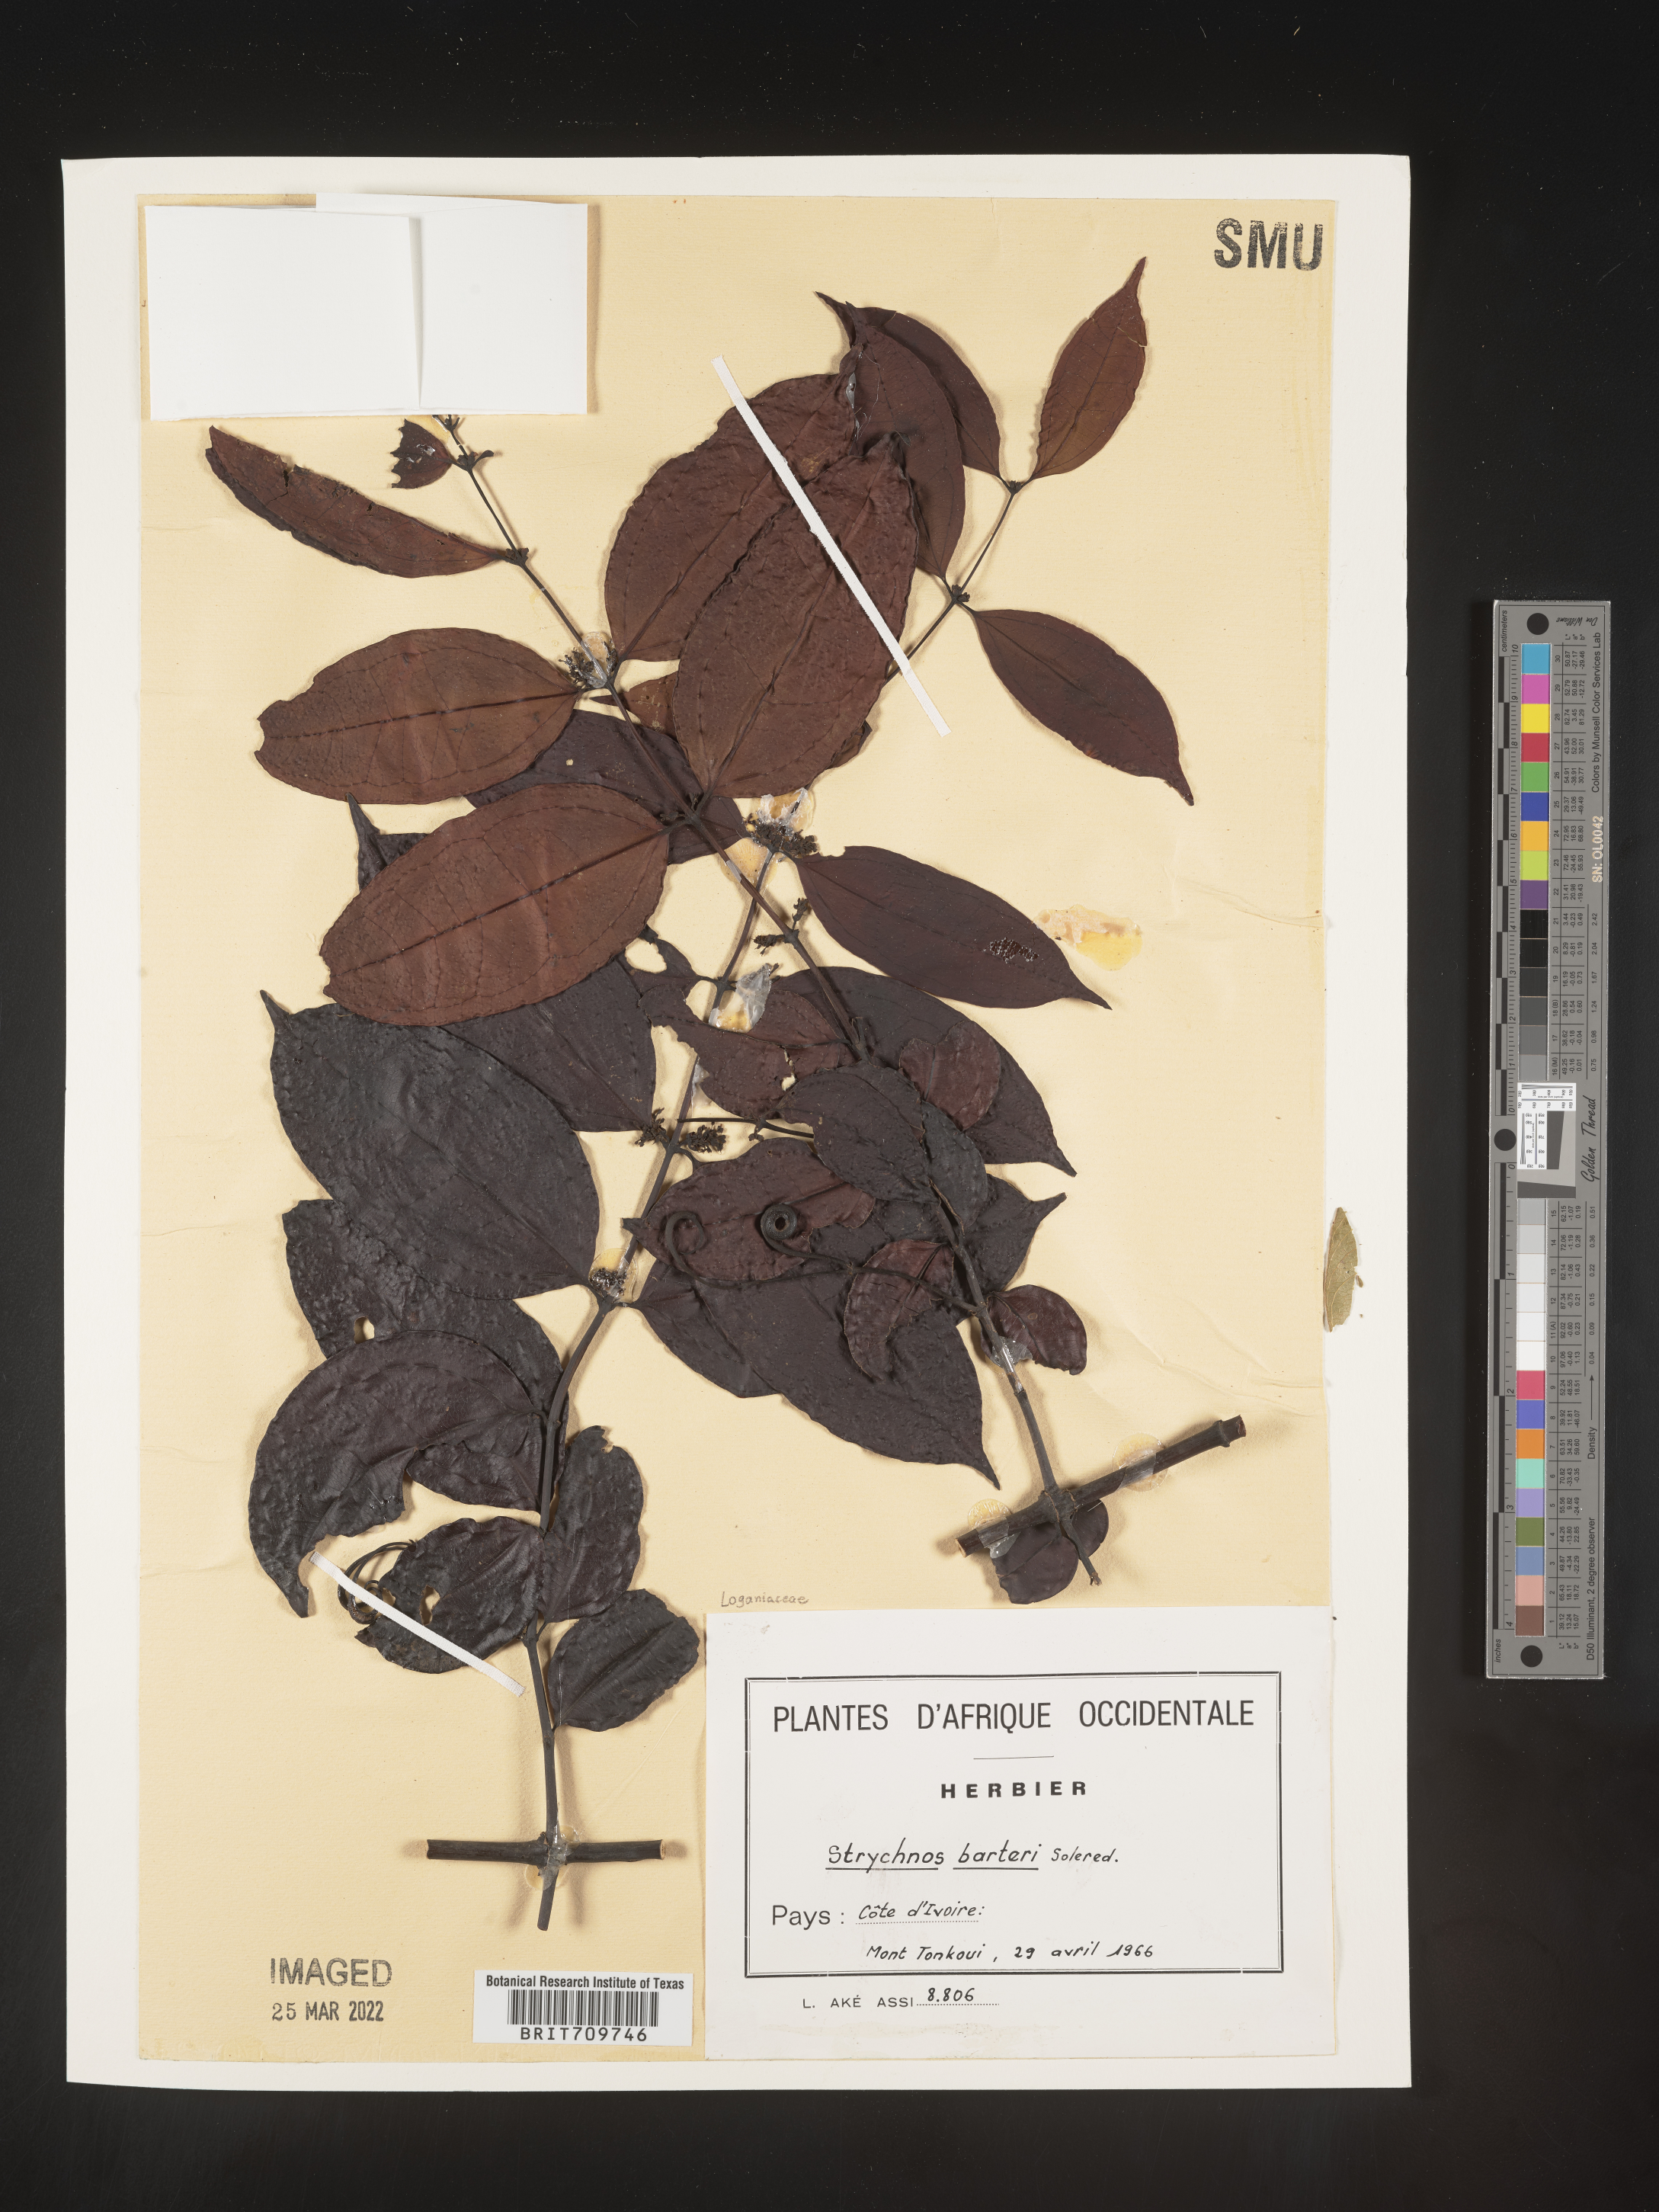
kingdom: Plantae
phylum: Tracheophyta
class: Magnoliopsida
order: Gentianales
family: Loganiaceae
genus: Strychnos
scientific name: Strychnos
